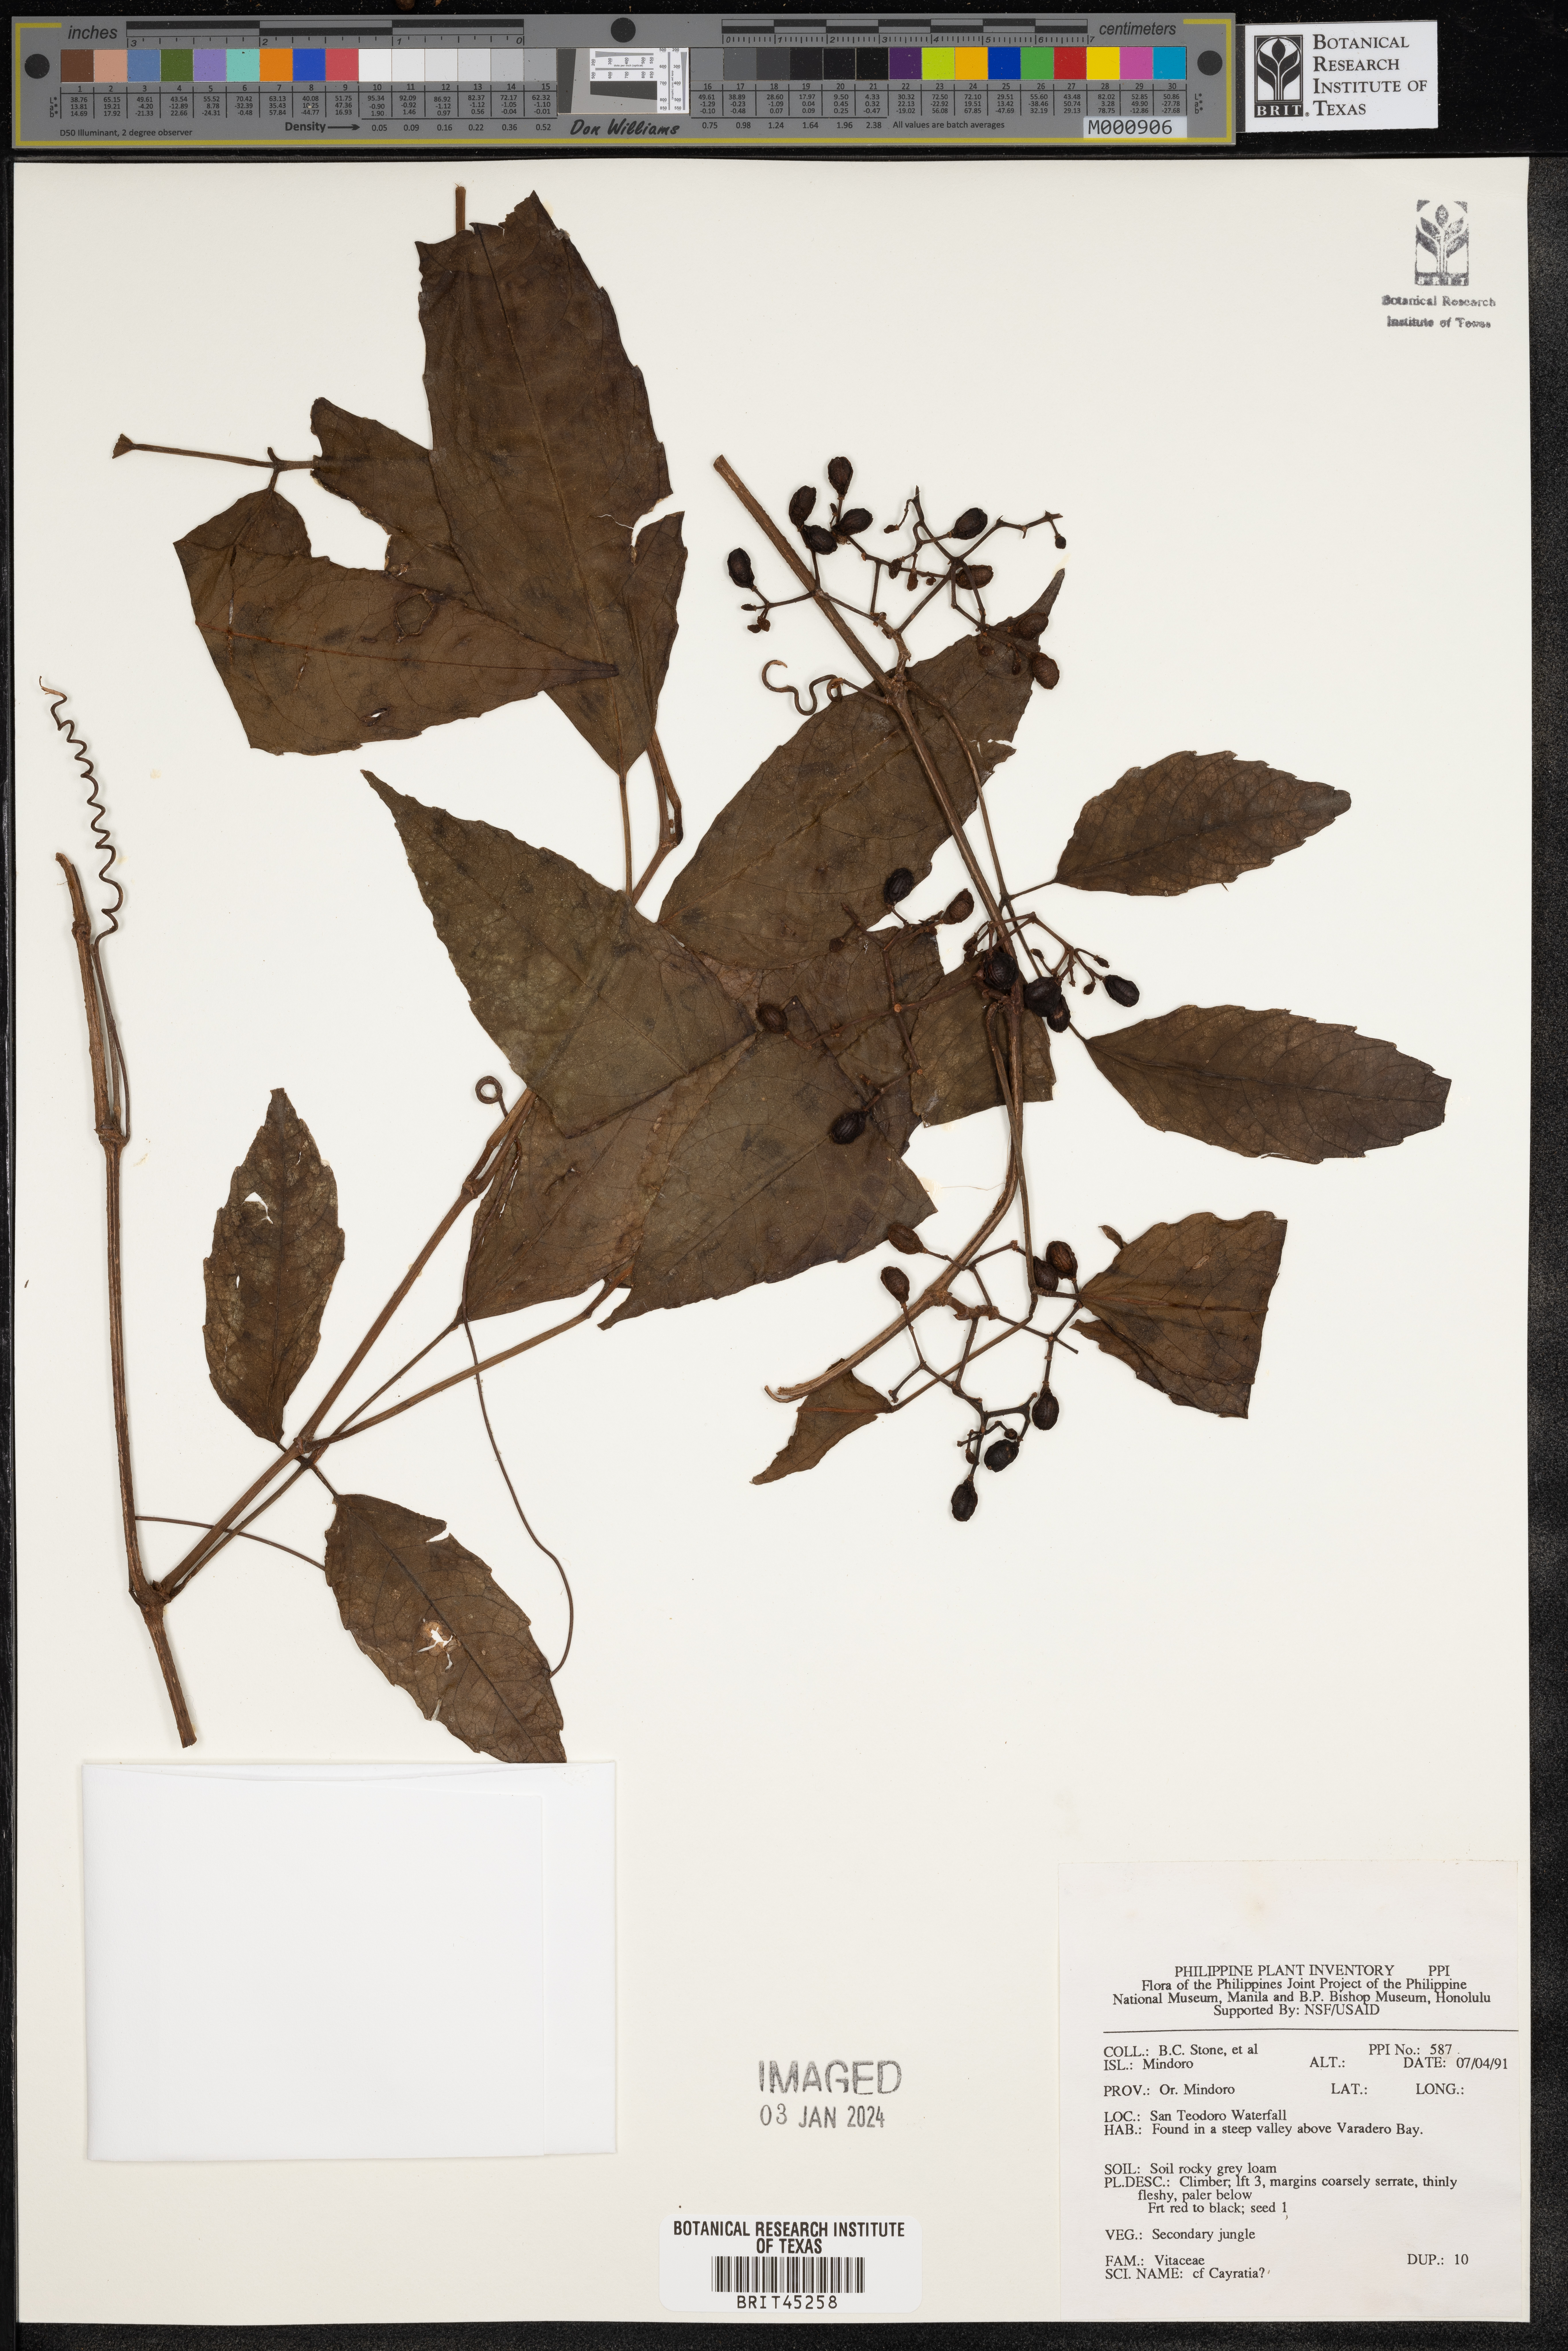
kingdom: Plantae
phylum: Tracheophyta
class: Magnoliopsida
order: Vitales
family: Vitaceae
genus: Cayratia
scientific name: Cayratia
